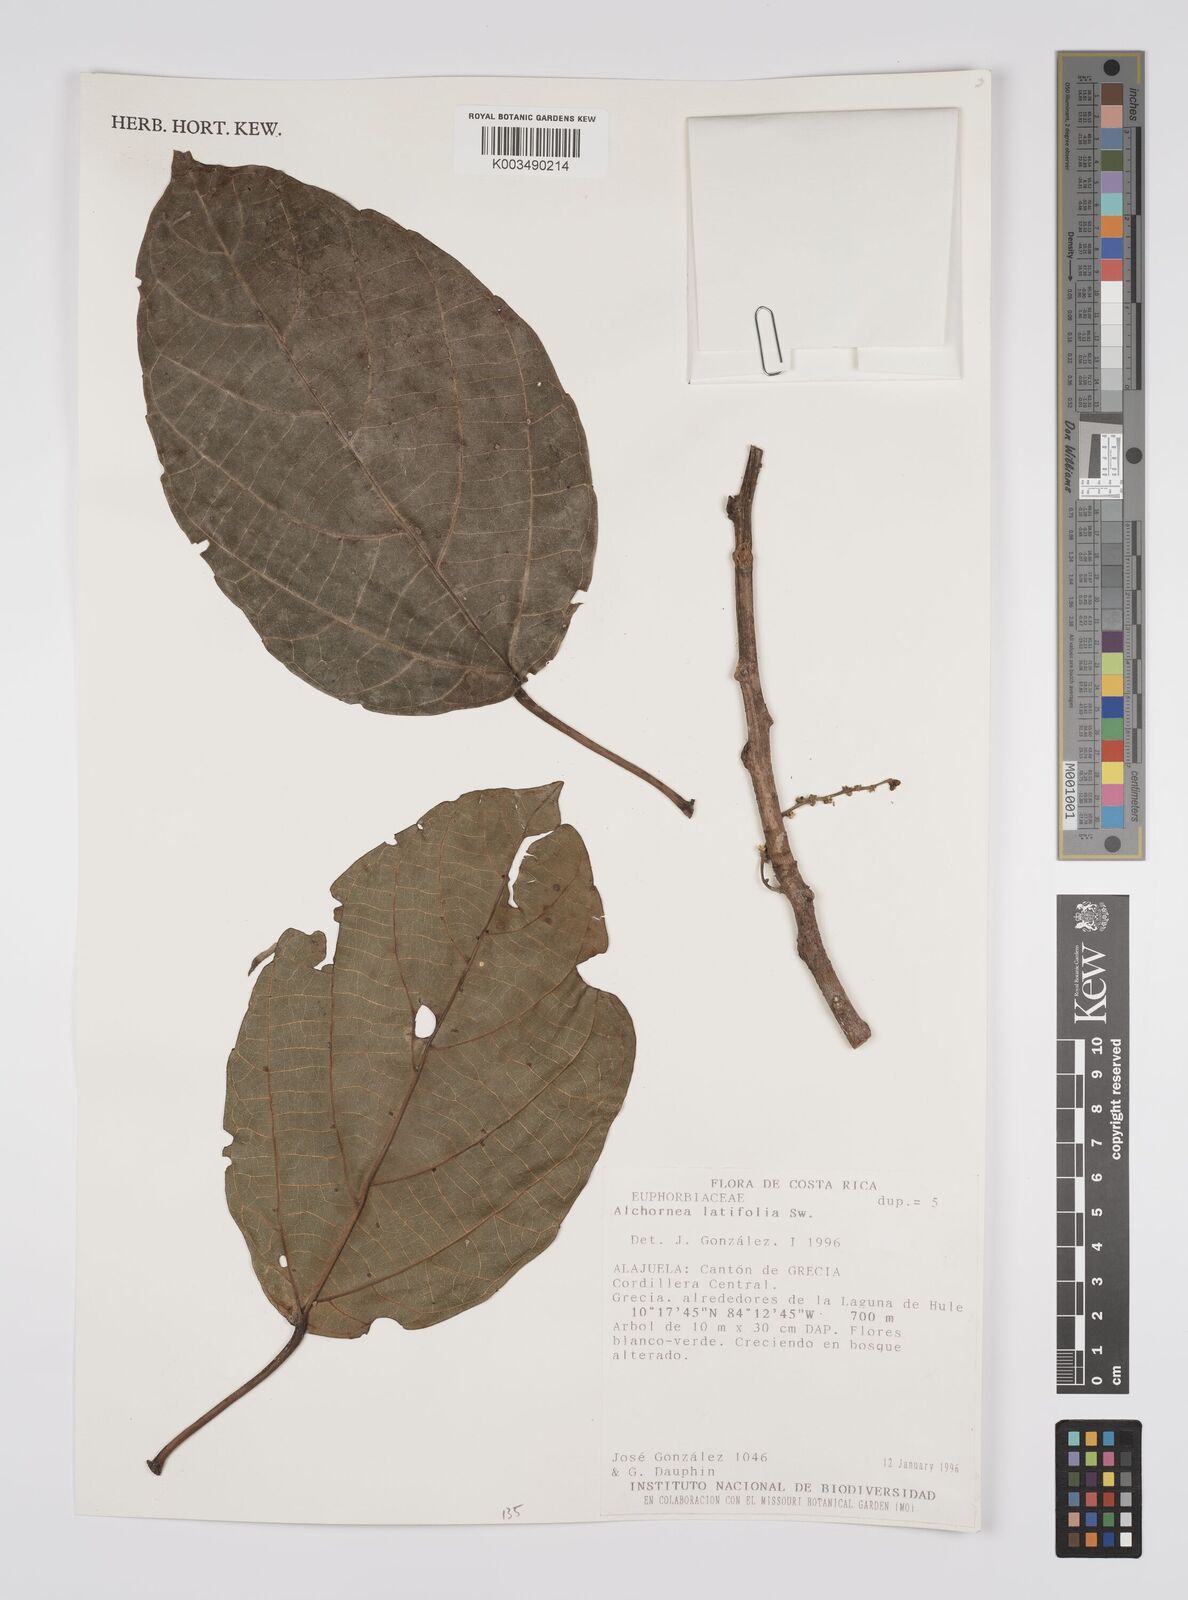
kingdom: Plantae
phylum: Tracheophyta
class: Magnoliopsida
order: Malpighiales
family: Euphorbiaceae
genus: Alchornea
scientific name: Alchornea latifolia
